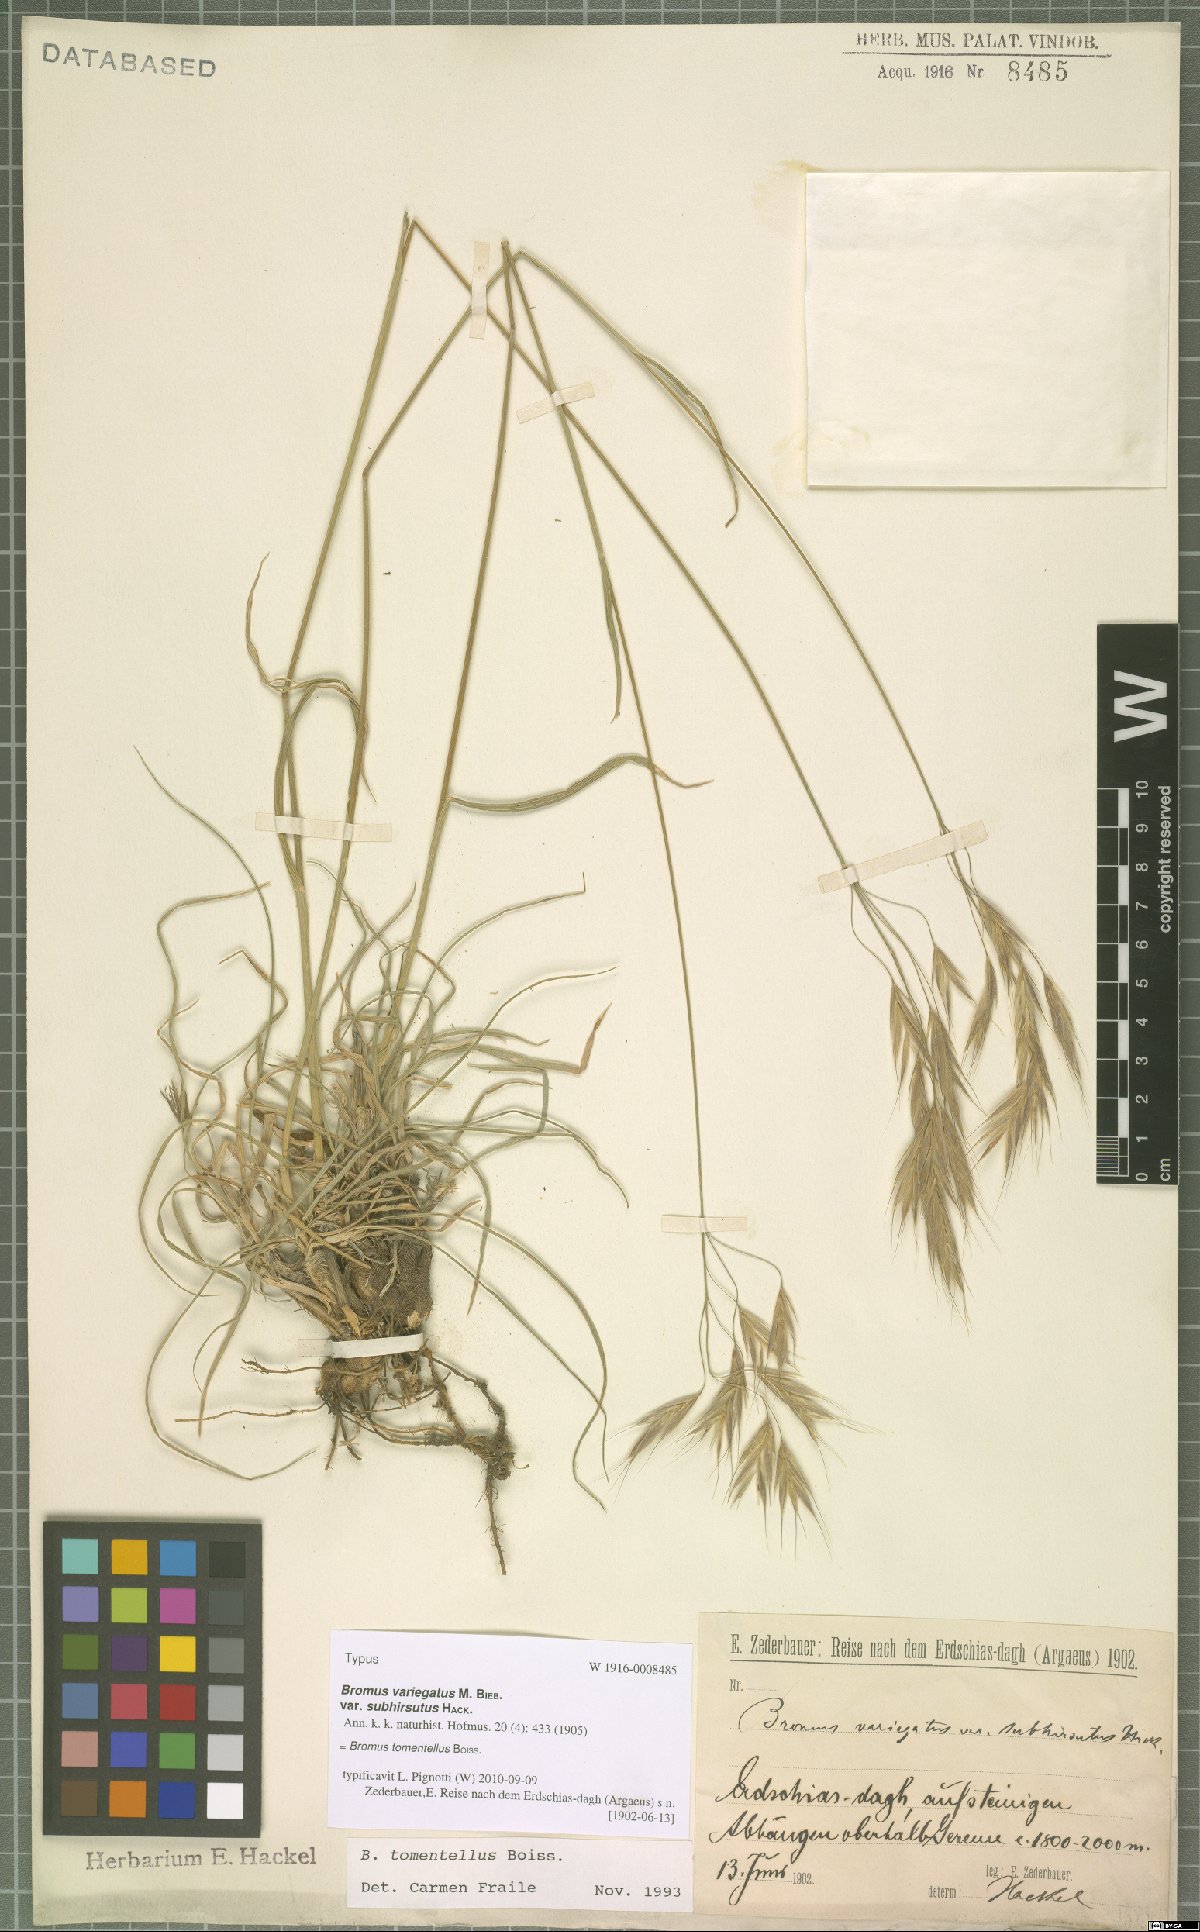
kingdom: Plantae
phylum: Tracheophyta
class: Liliopsida
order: Poales
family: Poaceae
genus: Bromus
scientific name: Bromus tomentellus
